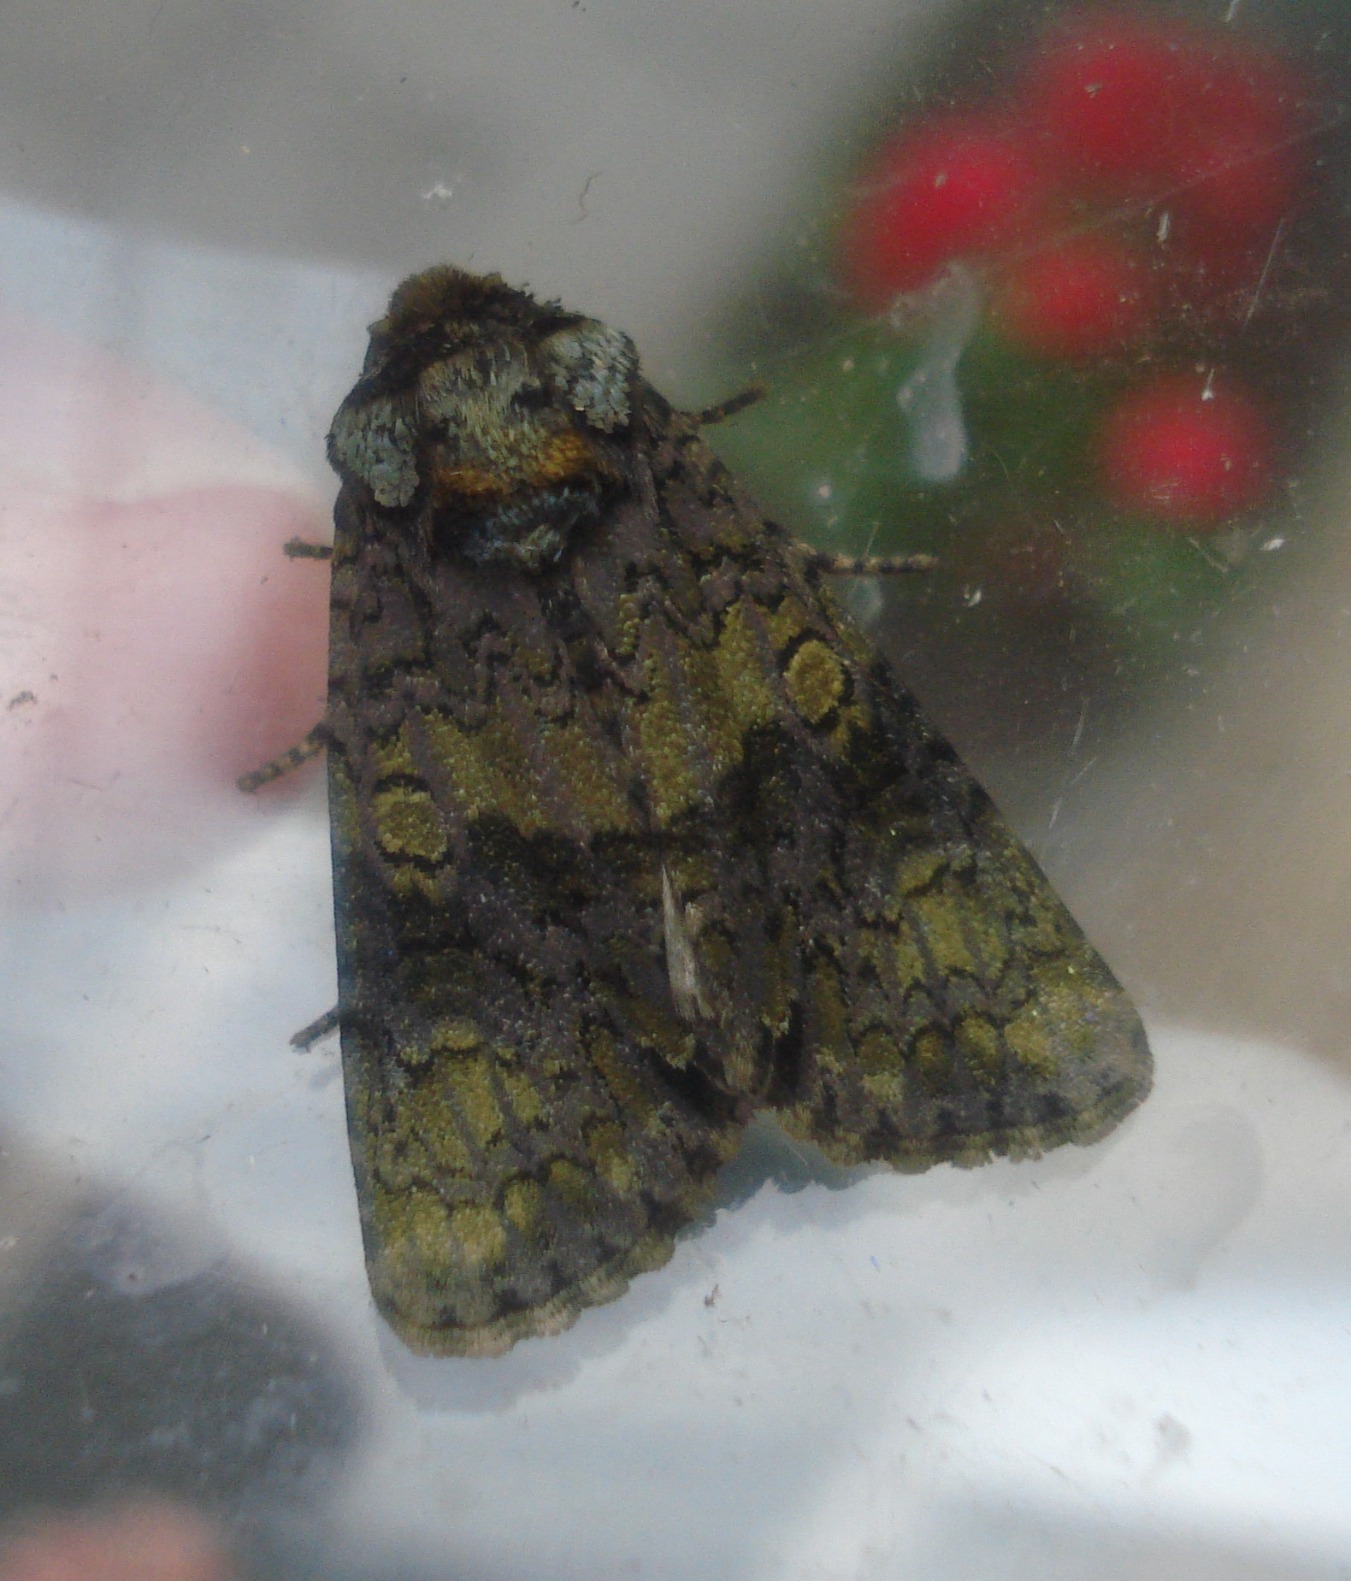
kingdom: Animalia
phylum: Arthropoda
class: Insecta
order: Lepidoptera
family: Noctuidae
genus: Craniophora
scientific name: Craniophora ligustri
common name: Askeugle
